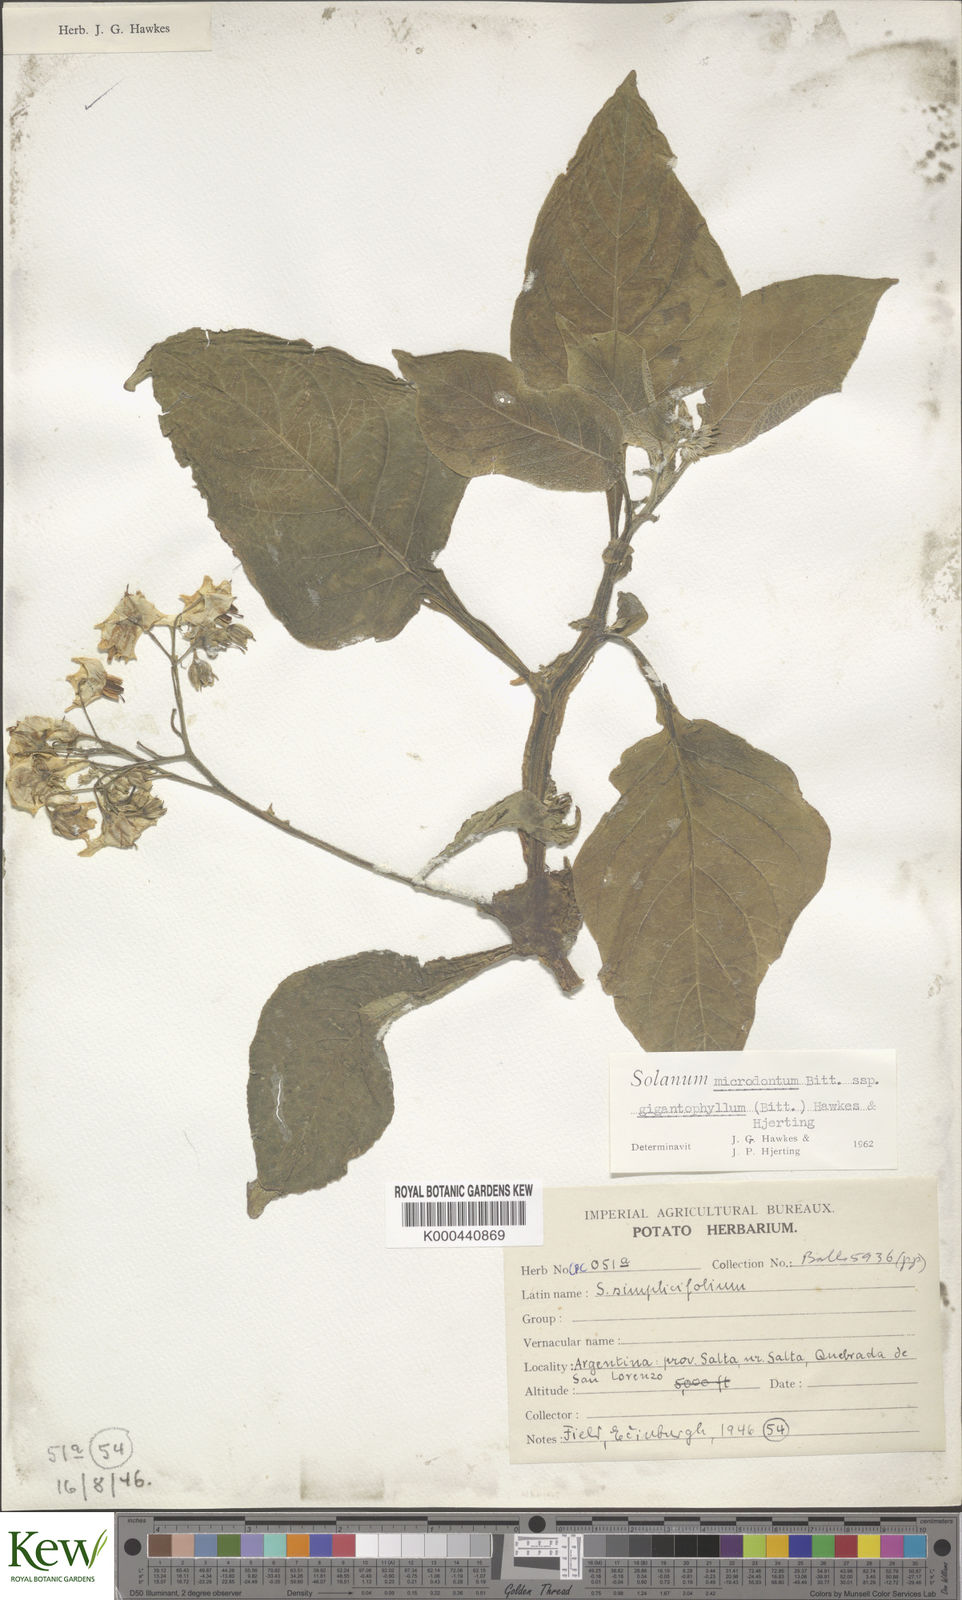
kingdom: Plantae
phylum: Tracheophyta
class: Magnoliopsida
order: Solanales
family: Solanaceae
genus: Solanum
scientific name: Solanum microdontum
